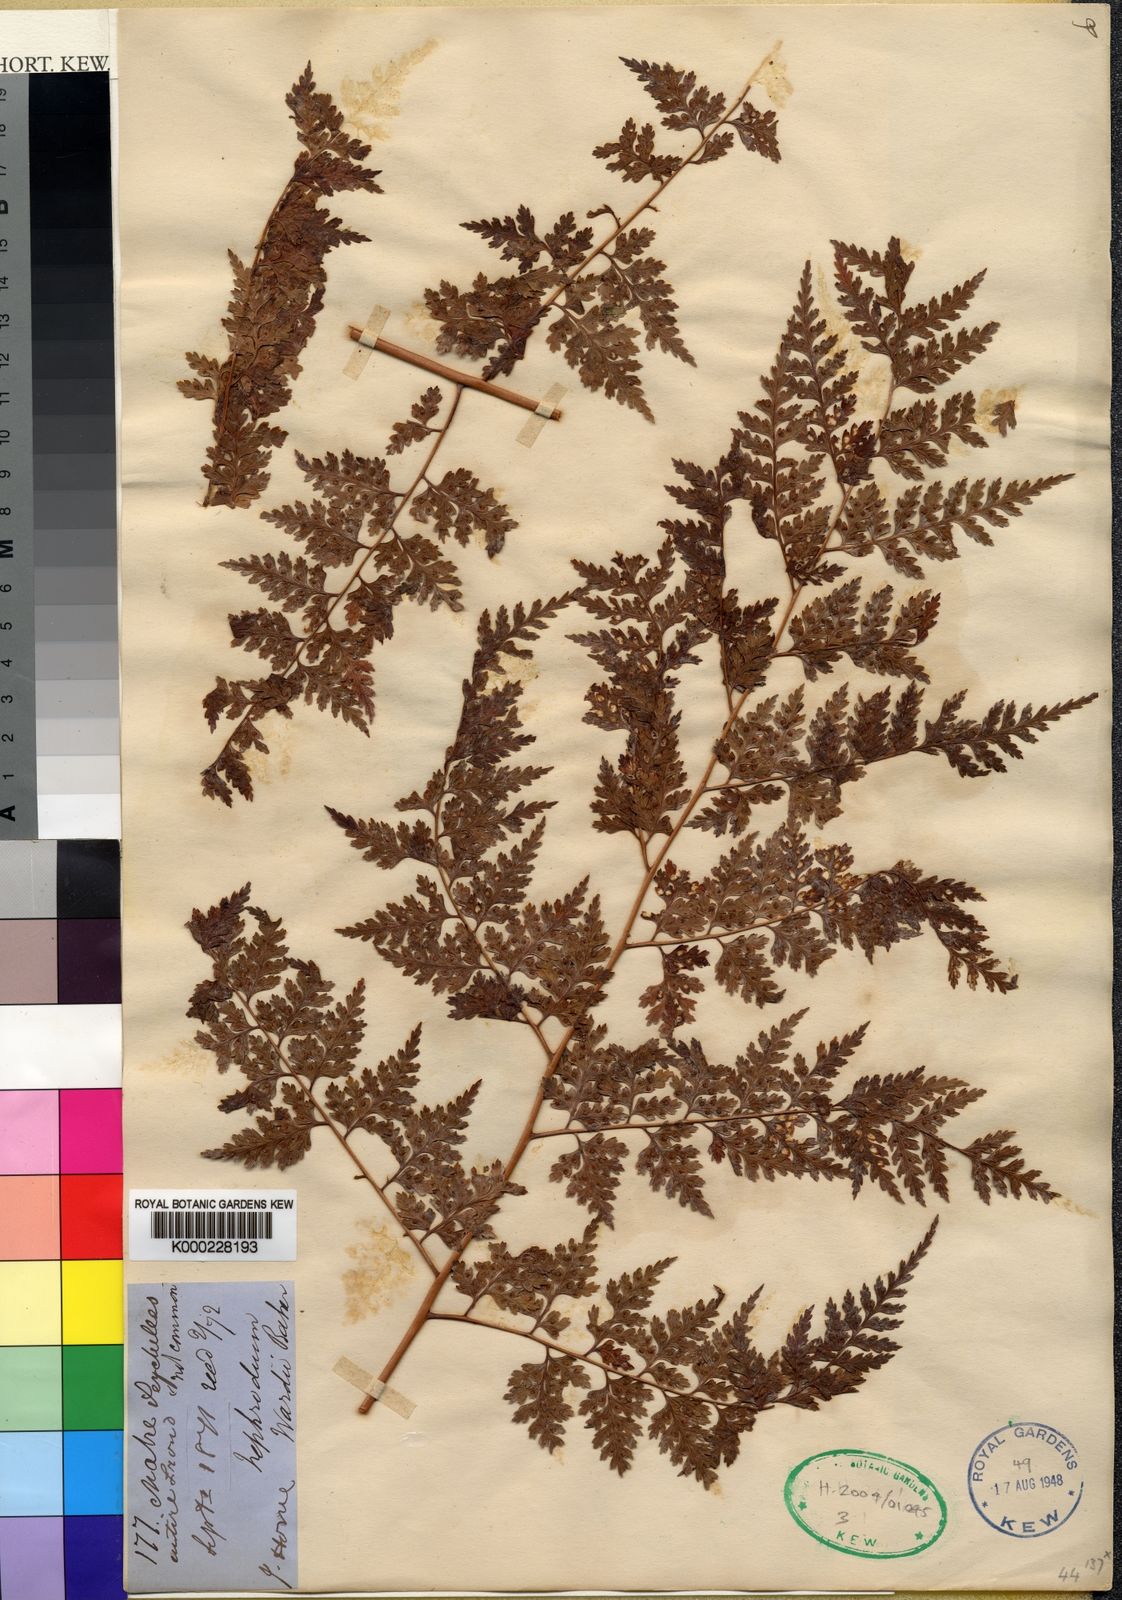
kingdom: Plantae
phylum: Tracheophyta
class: Polypodiopsida
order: Polypodiales
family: Dryopteridaceae
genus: Dryopteris
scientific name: Dryopteris wardii
